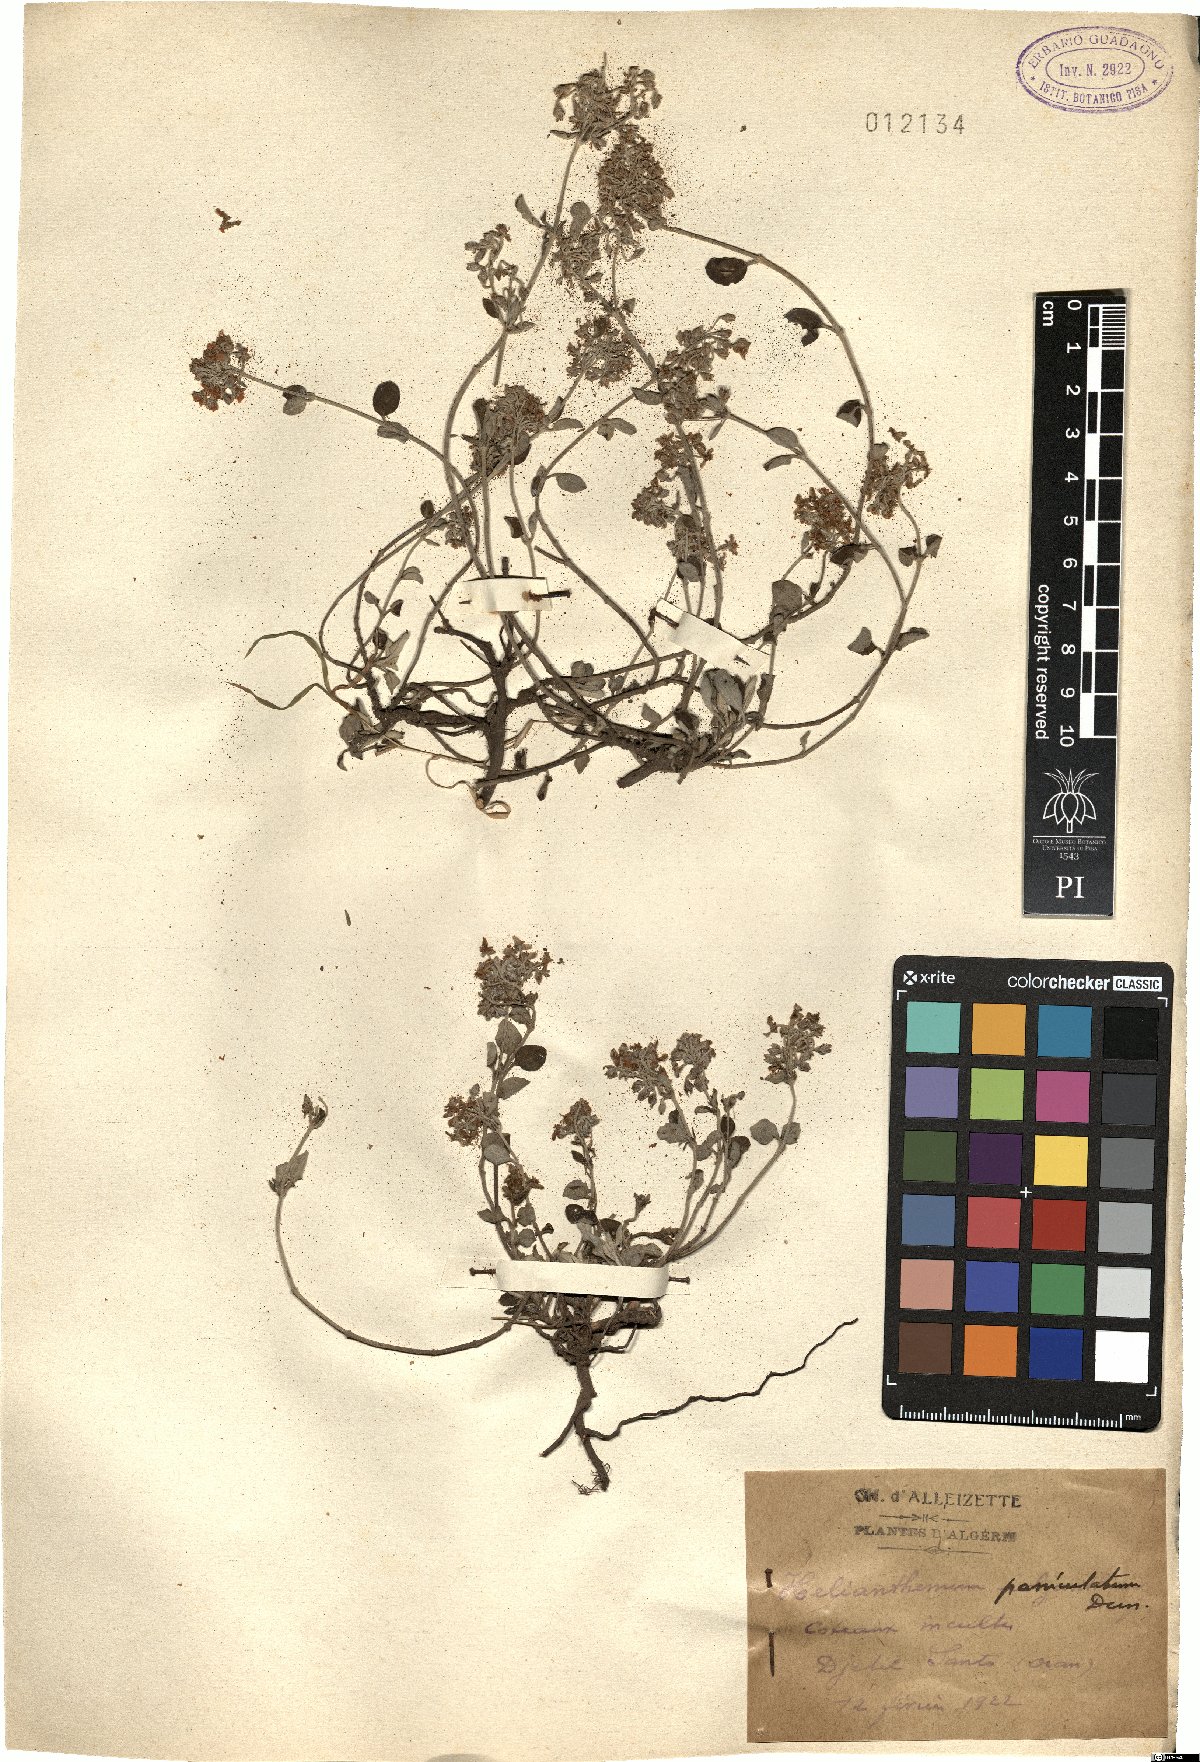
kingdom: Plantae
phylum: Tracheophyta
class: Magnoliopsida
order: Malvales
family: Cistaceae
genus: Helianthemum
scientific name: Helianthemum cinereum
